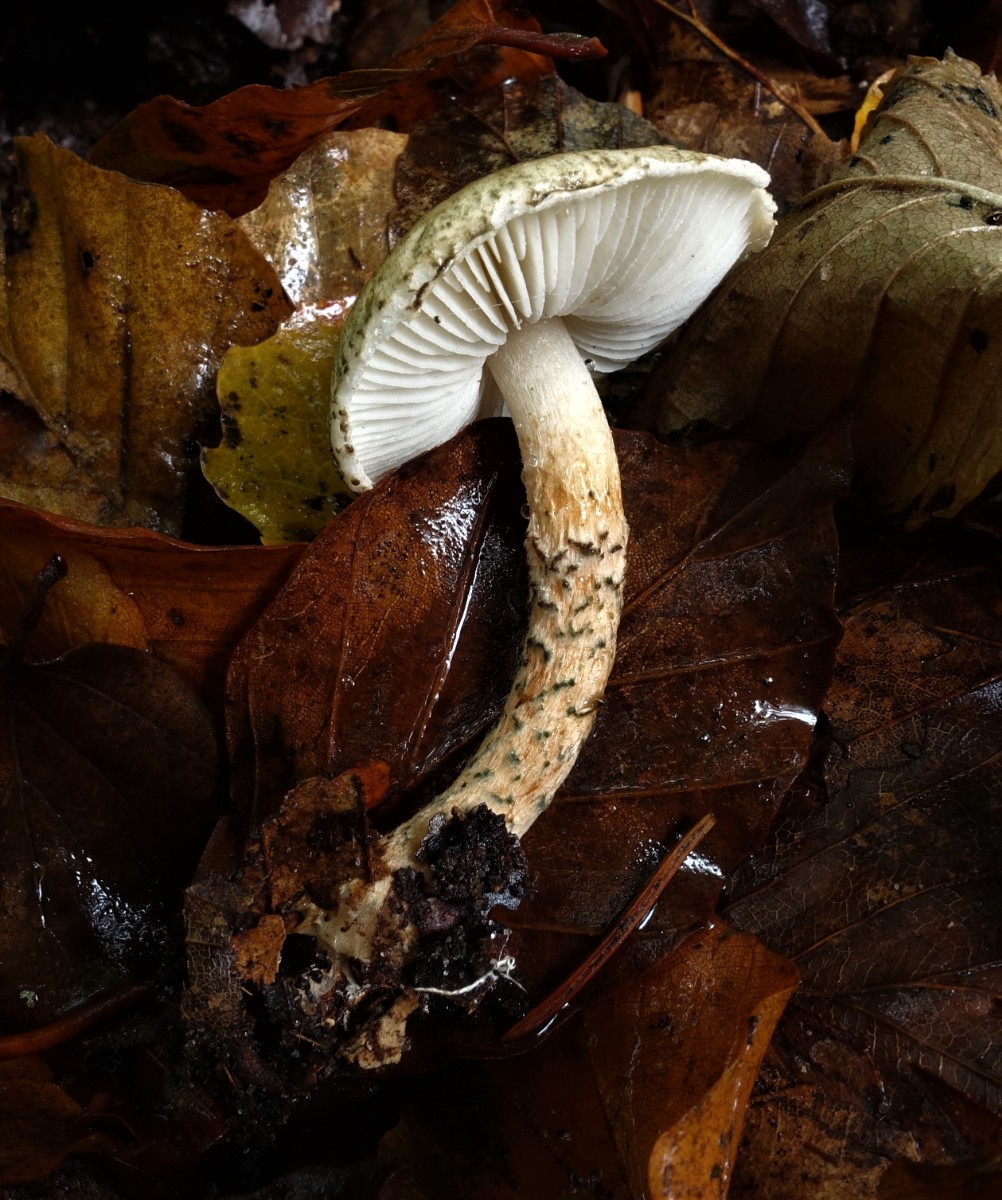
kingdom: Fungi
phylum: Basidiomycota
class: Agaricomycetes
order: Agaricales
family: Agaricaceae
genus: Lepiota
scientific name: Lepiota grangei
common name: grønskællet parasolhat
